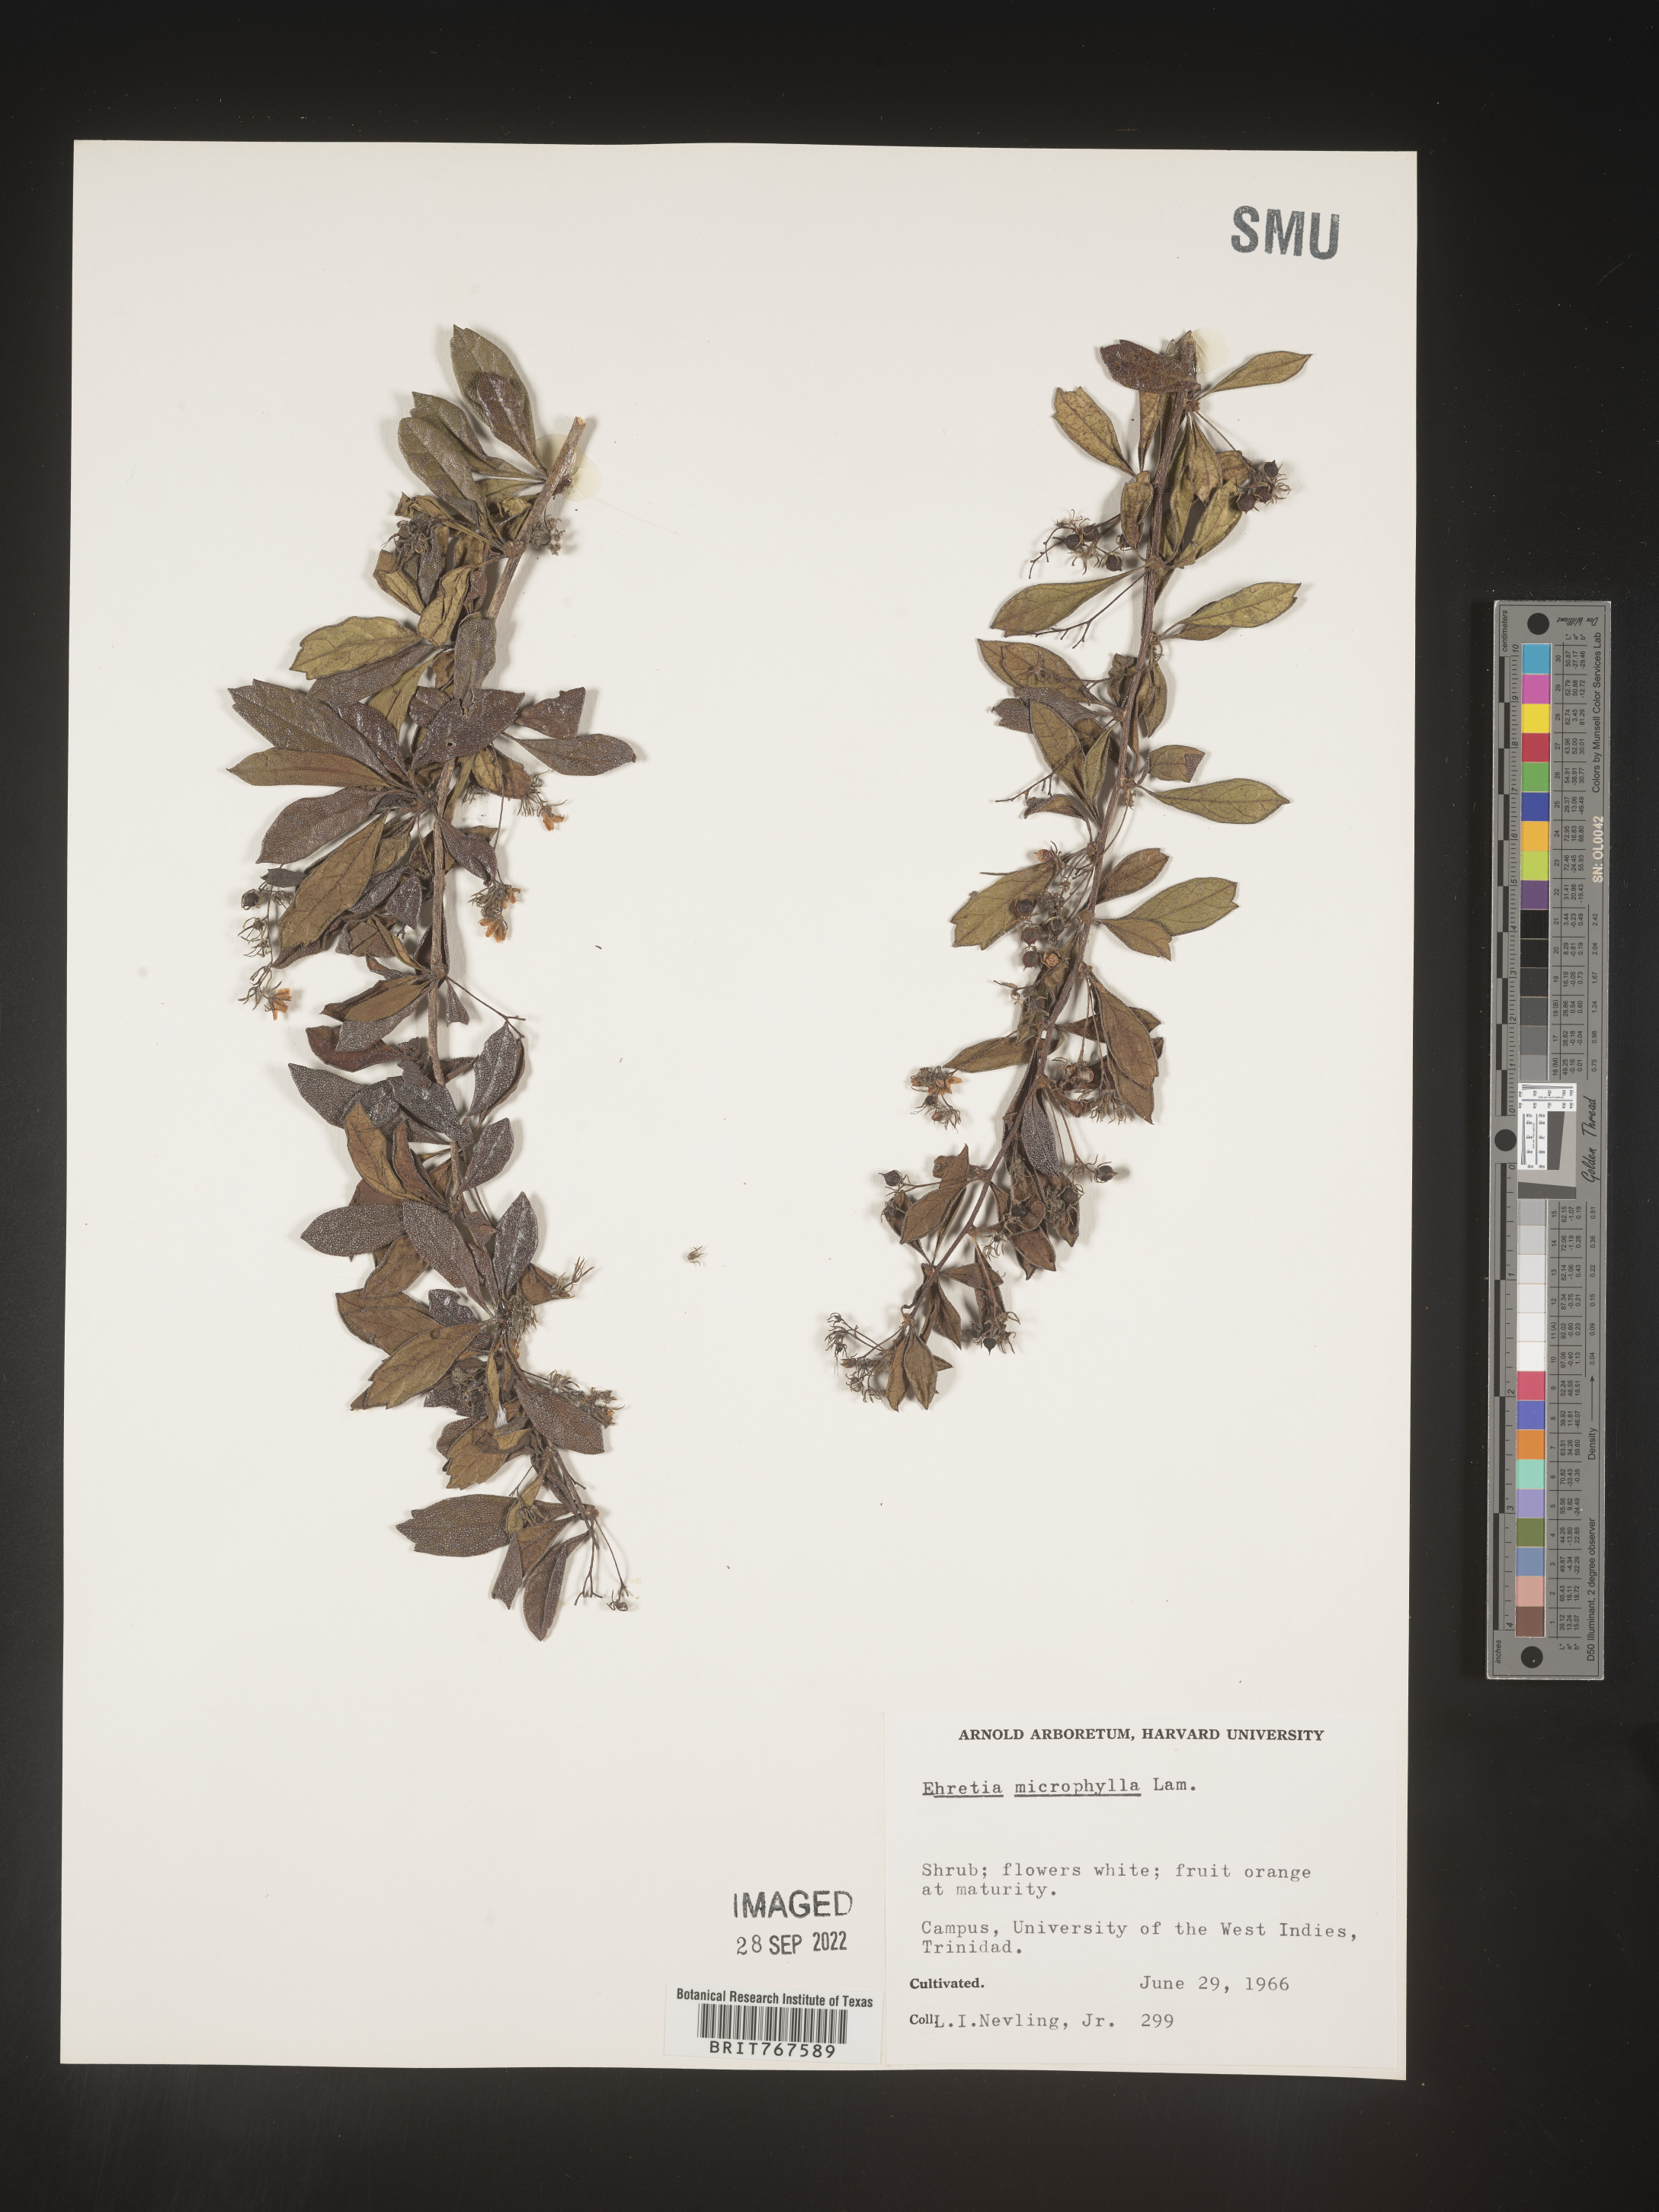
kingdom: Plantae
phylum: Tracheophyta
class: Magnoliopsida
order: Boraginales
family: Ehretiaceae
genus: Ehretia
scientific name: Ehretia
